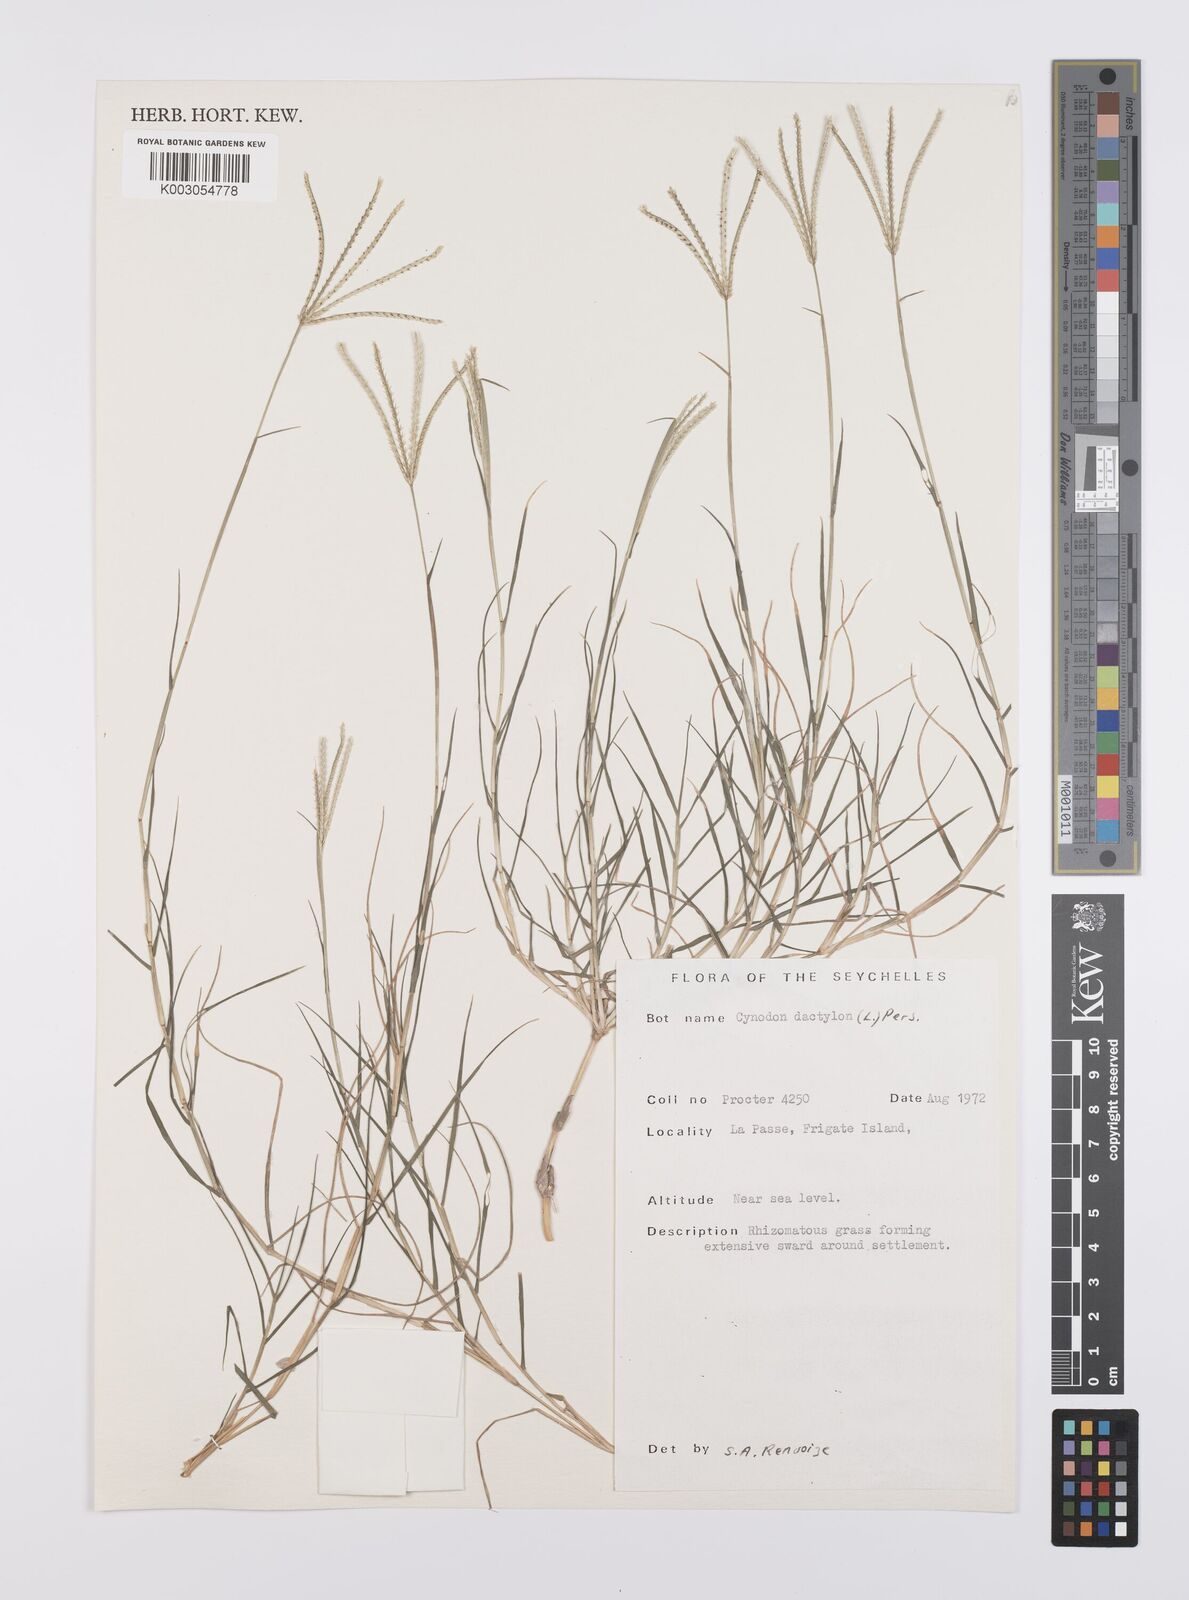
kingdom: Plantae
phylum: Tracheophyta
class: Liliopsida
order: Poales
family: Poaceae
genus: Cynodon
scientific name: Cynodon dactylon
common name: Bermuda grass
